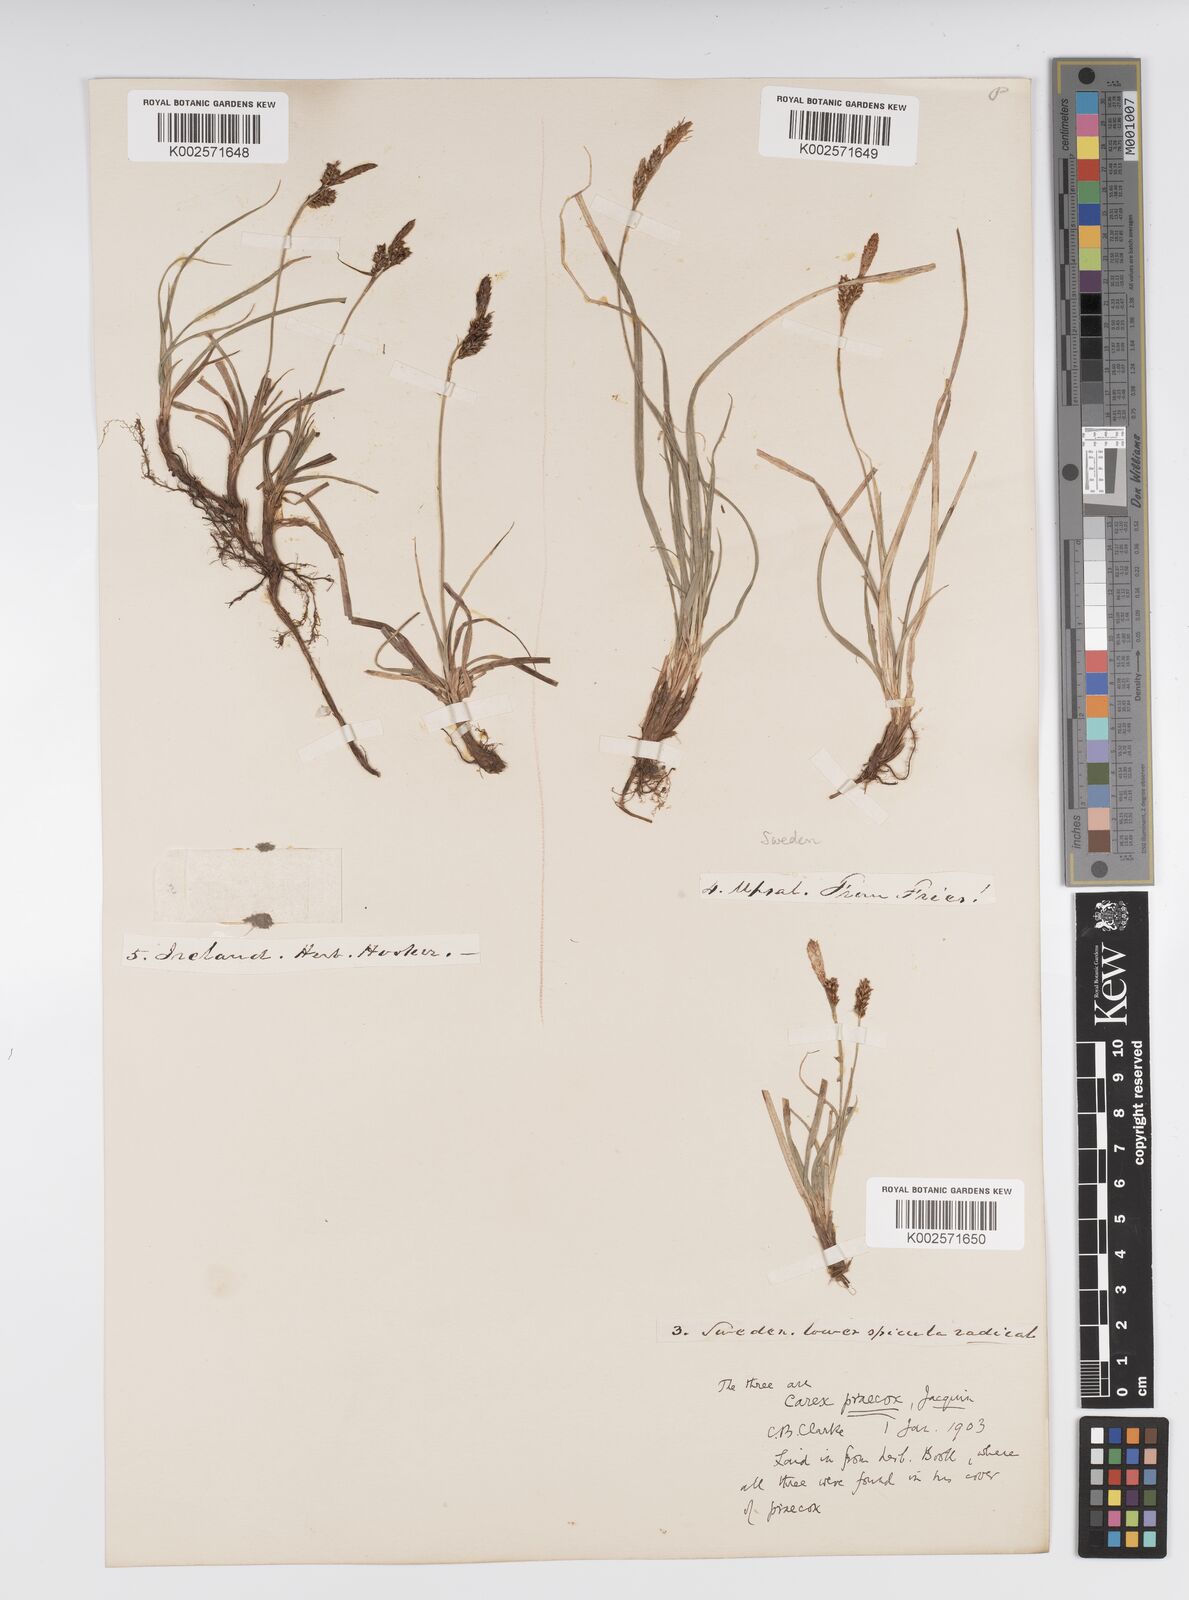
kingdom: Plantae
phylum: Tracheophyta
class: Liliopsida
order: Poales
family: Cyperaceae
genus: Carex
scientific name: Carex caryophyllea
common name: Spring sedge
